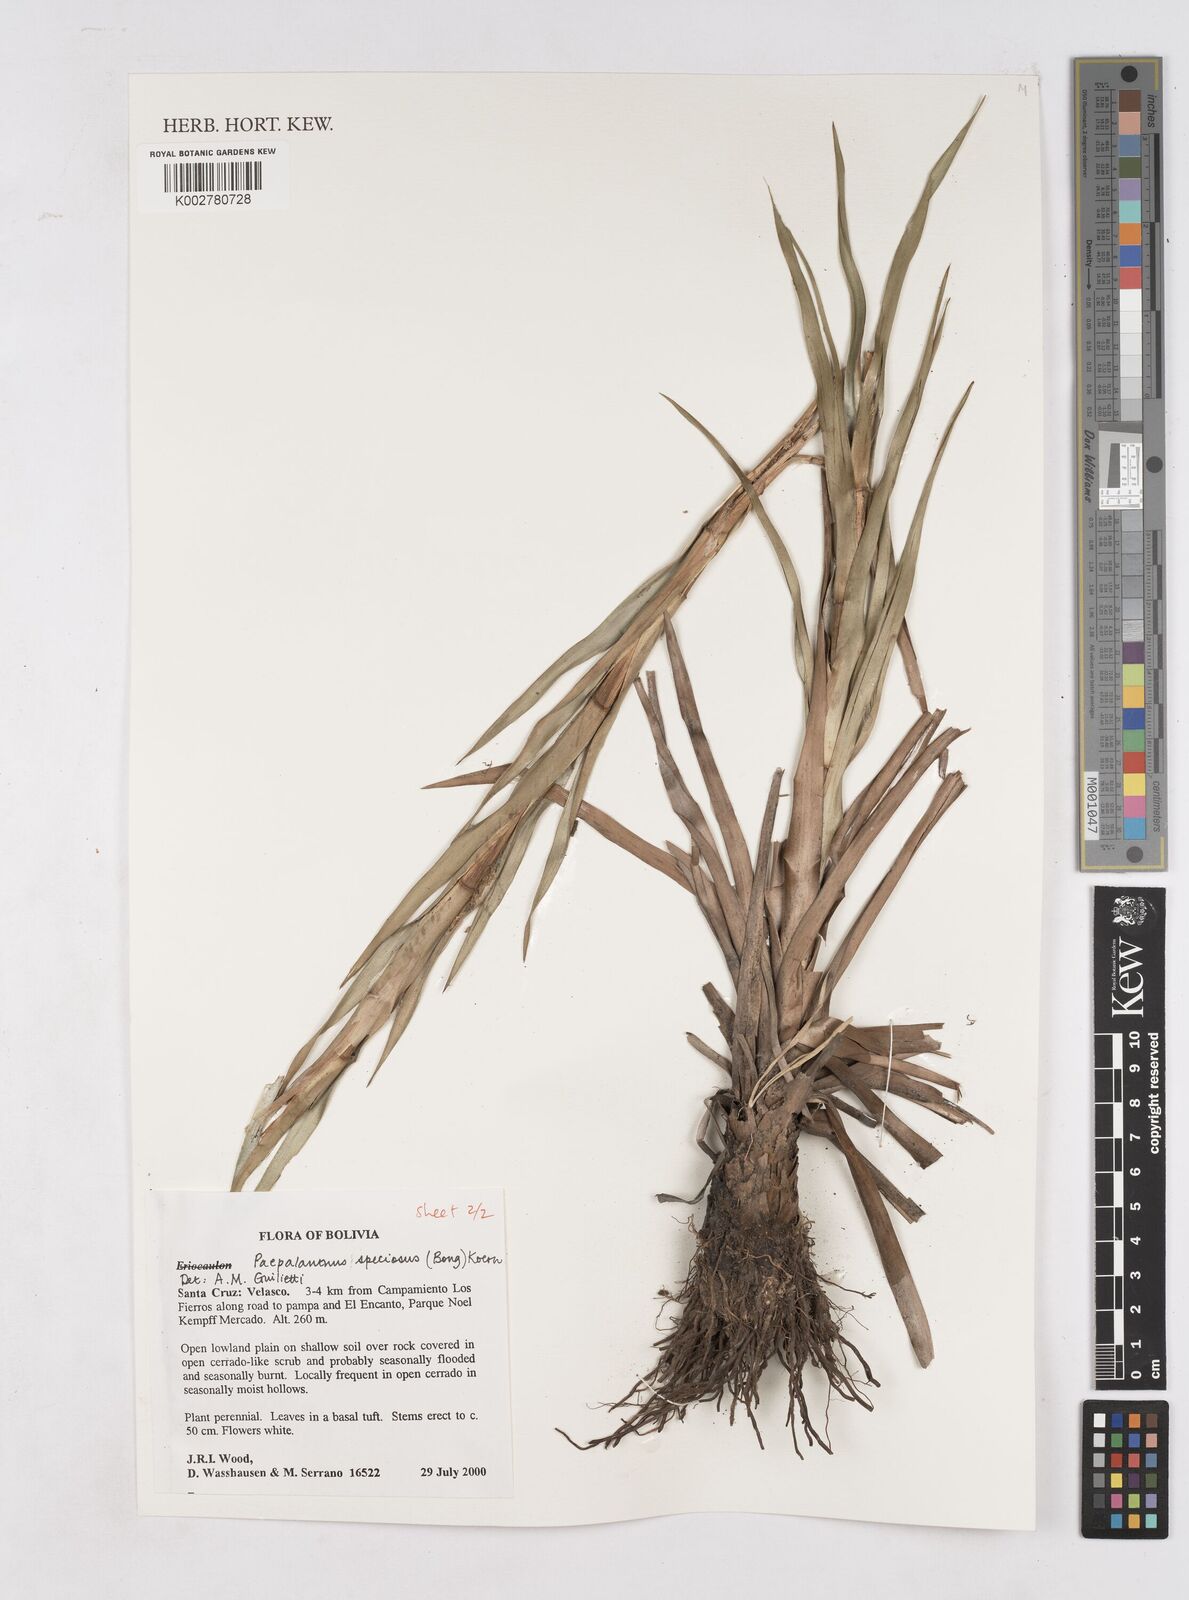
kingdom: Plantae
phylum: Tracheophyta
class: Liliopsida
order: Poales
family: Eriocaulaceae
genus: Paepalanthus
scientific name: Paepalanthus chiquitensis
